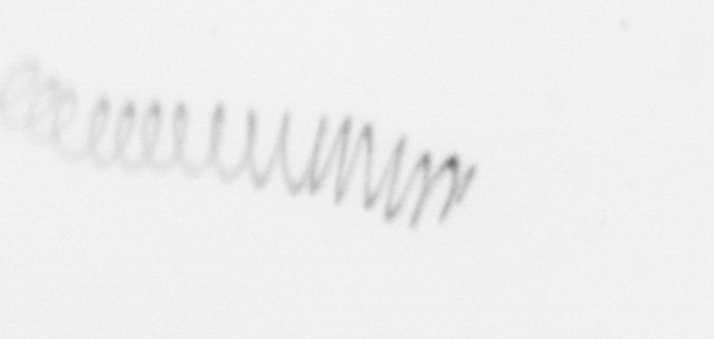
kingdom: Chromista
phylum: Ochrophyta
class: Bacillariophyceae
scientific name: Bacillariophyceae
